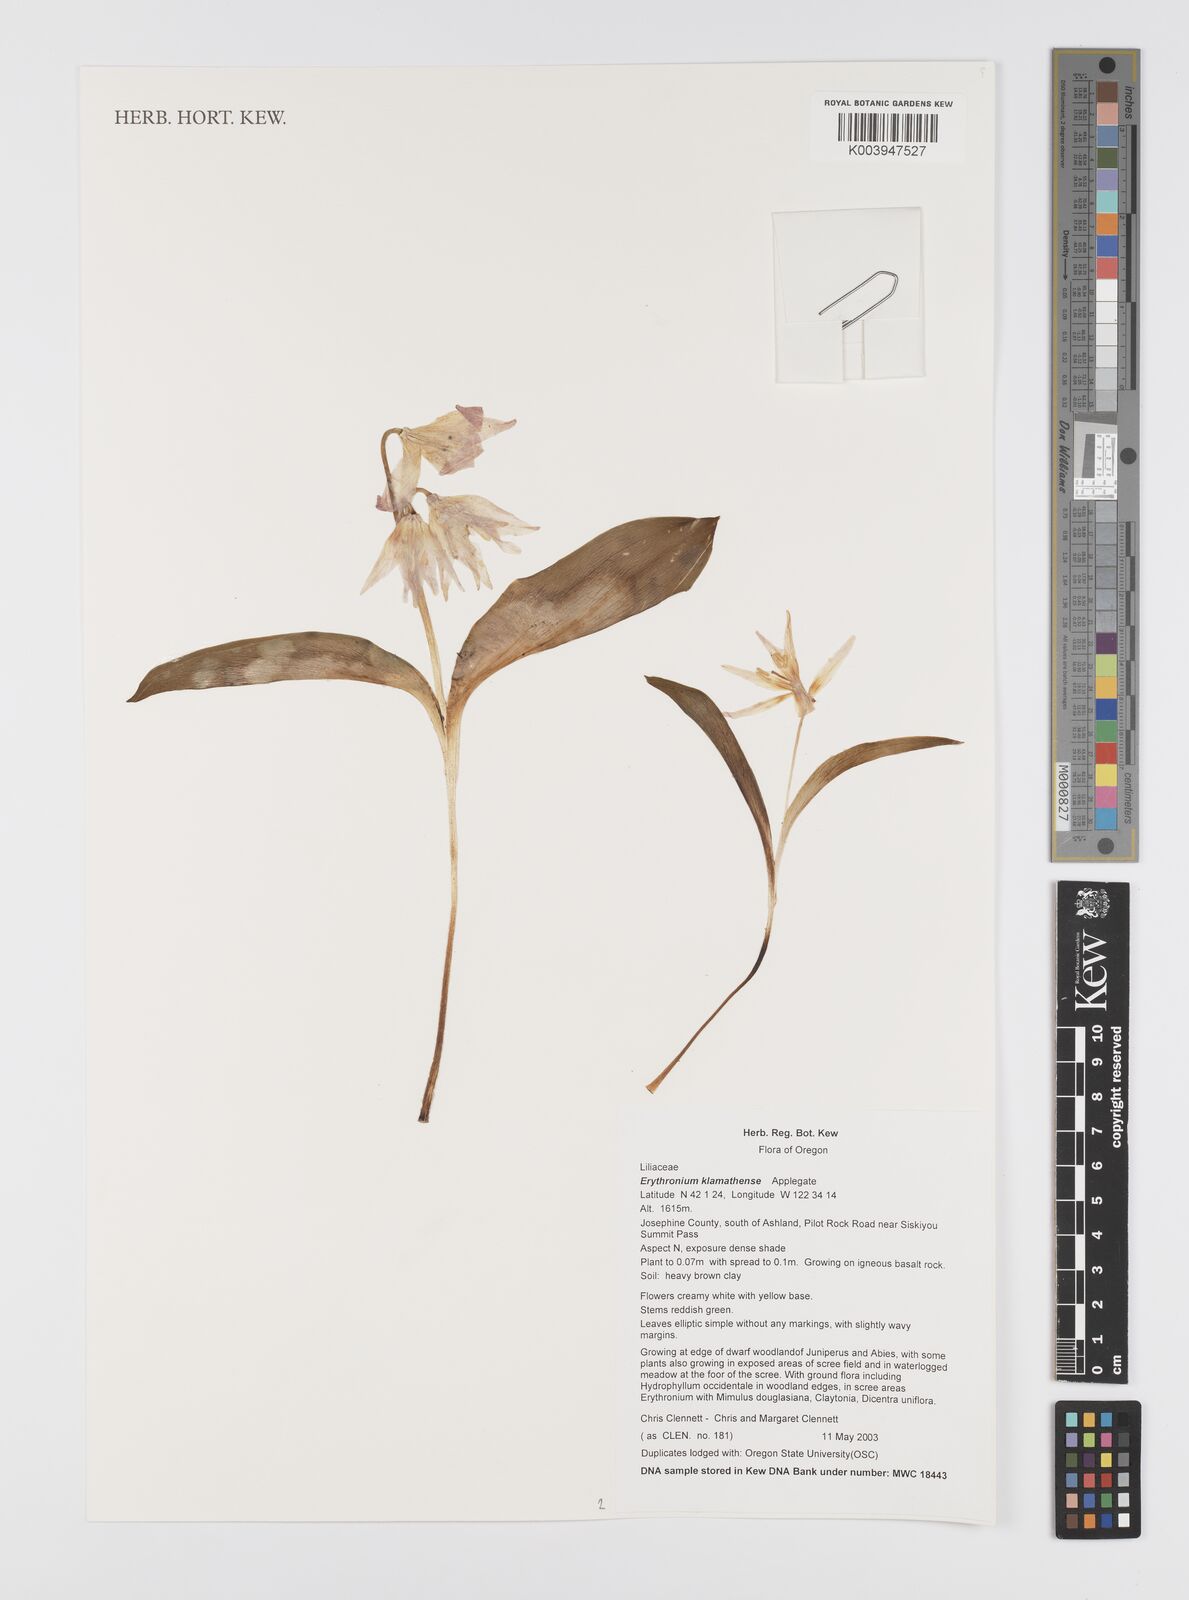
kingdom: Plantae
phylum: Tracheophyta
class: Liliopsida
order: Liliales
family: Liliaceae
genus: Erythronium
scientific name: Erythronium klamathense
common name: Klamath fawn-lily
